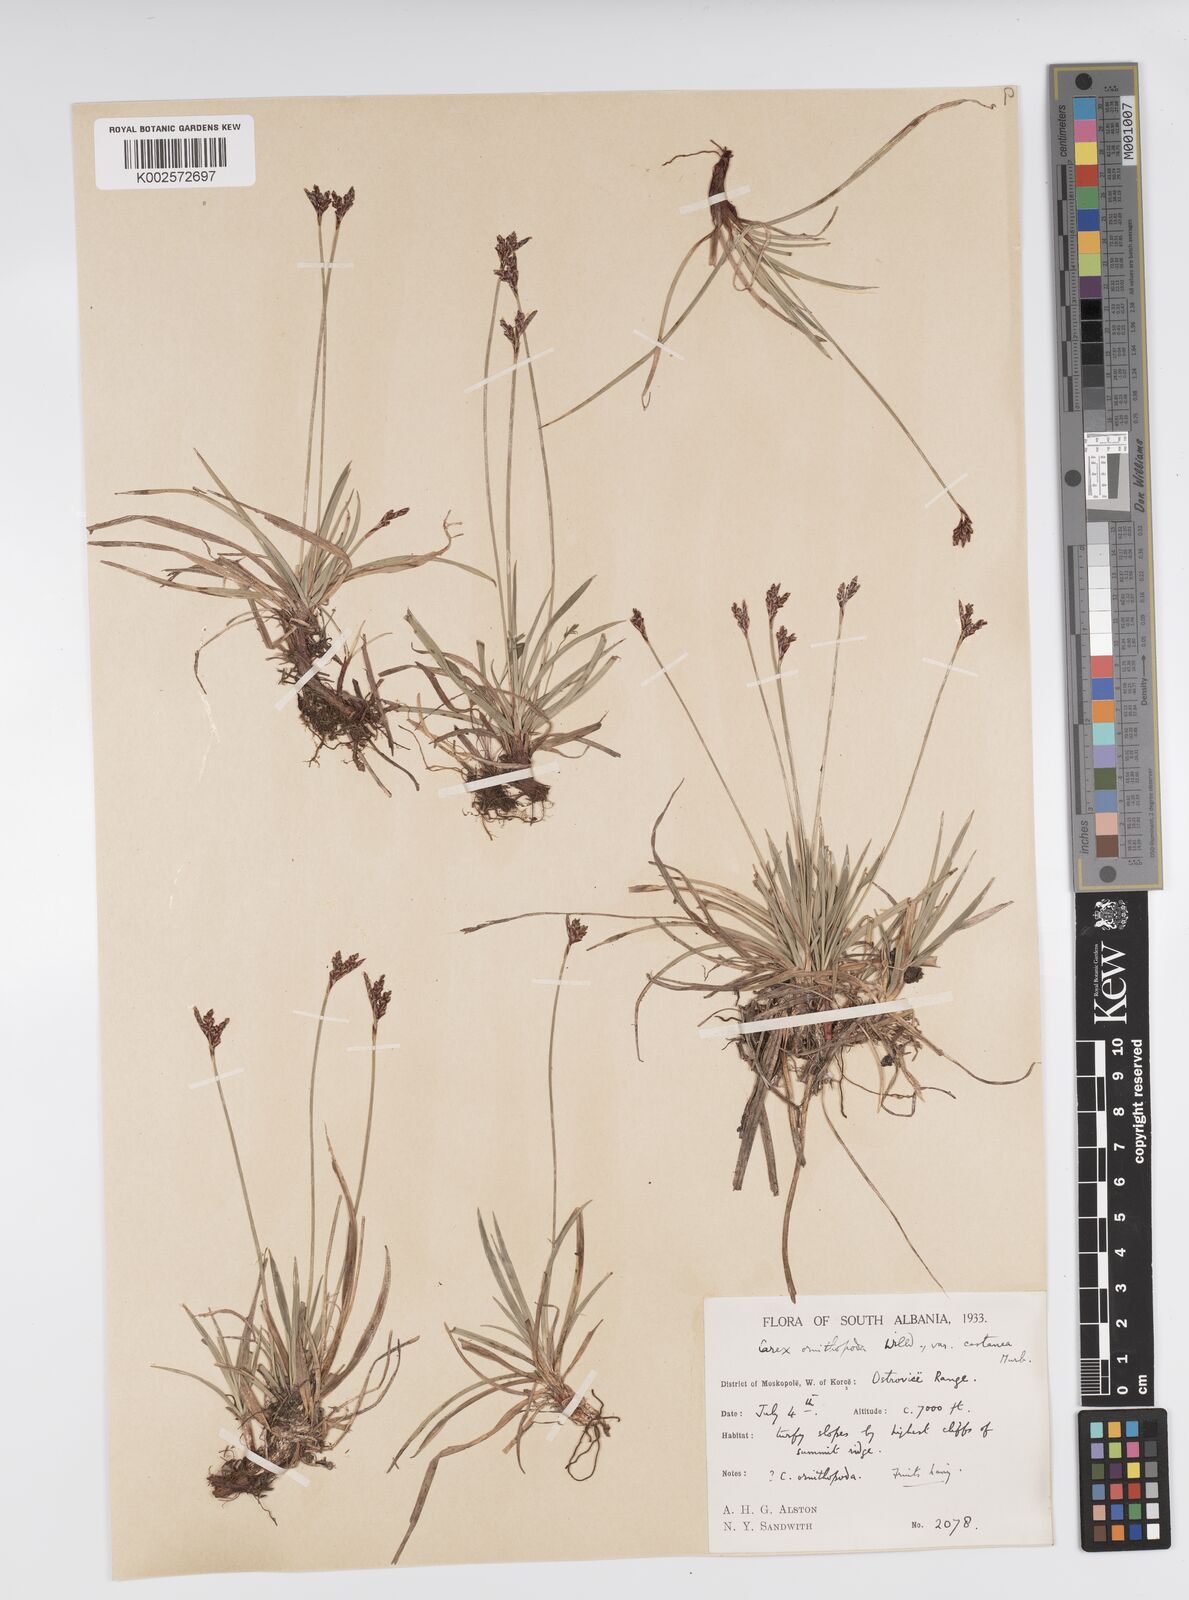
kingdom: Plantae
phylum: Tracheophyta
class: Liliopsida
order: Poales
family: Cyperaceae
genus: Carex
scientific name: Carex ornithopoda
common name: Bird's-foot sedge
